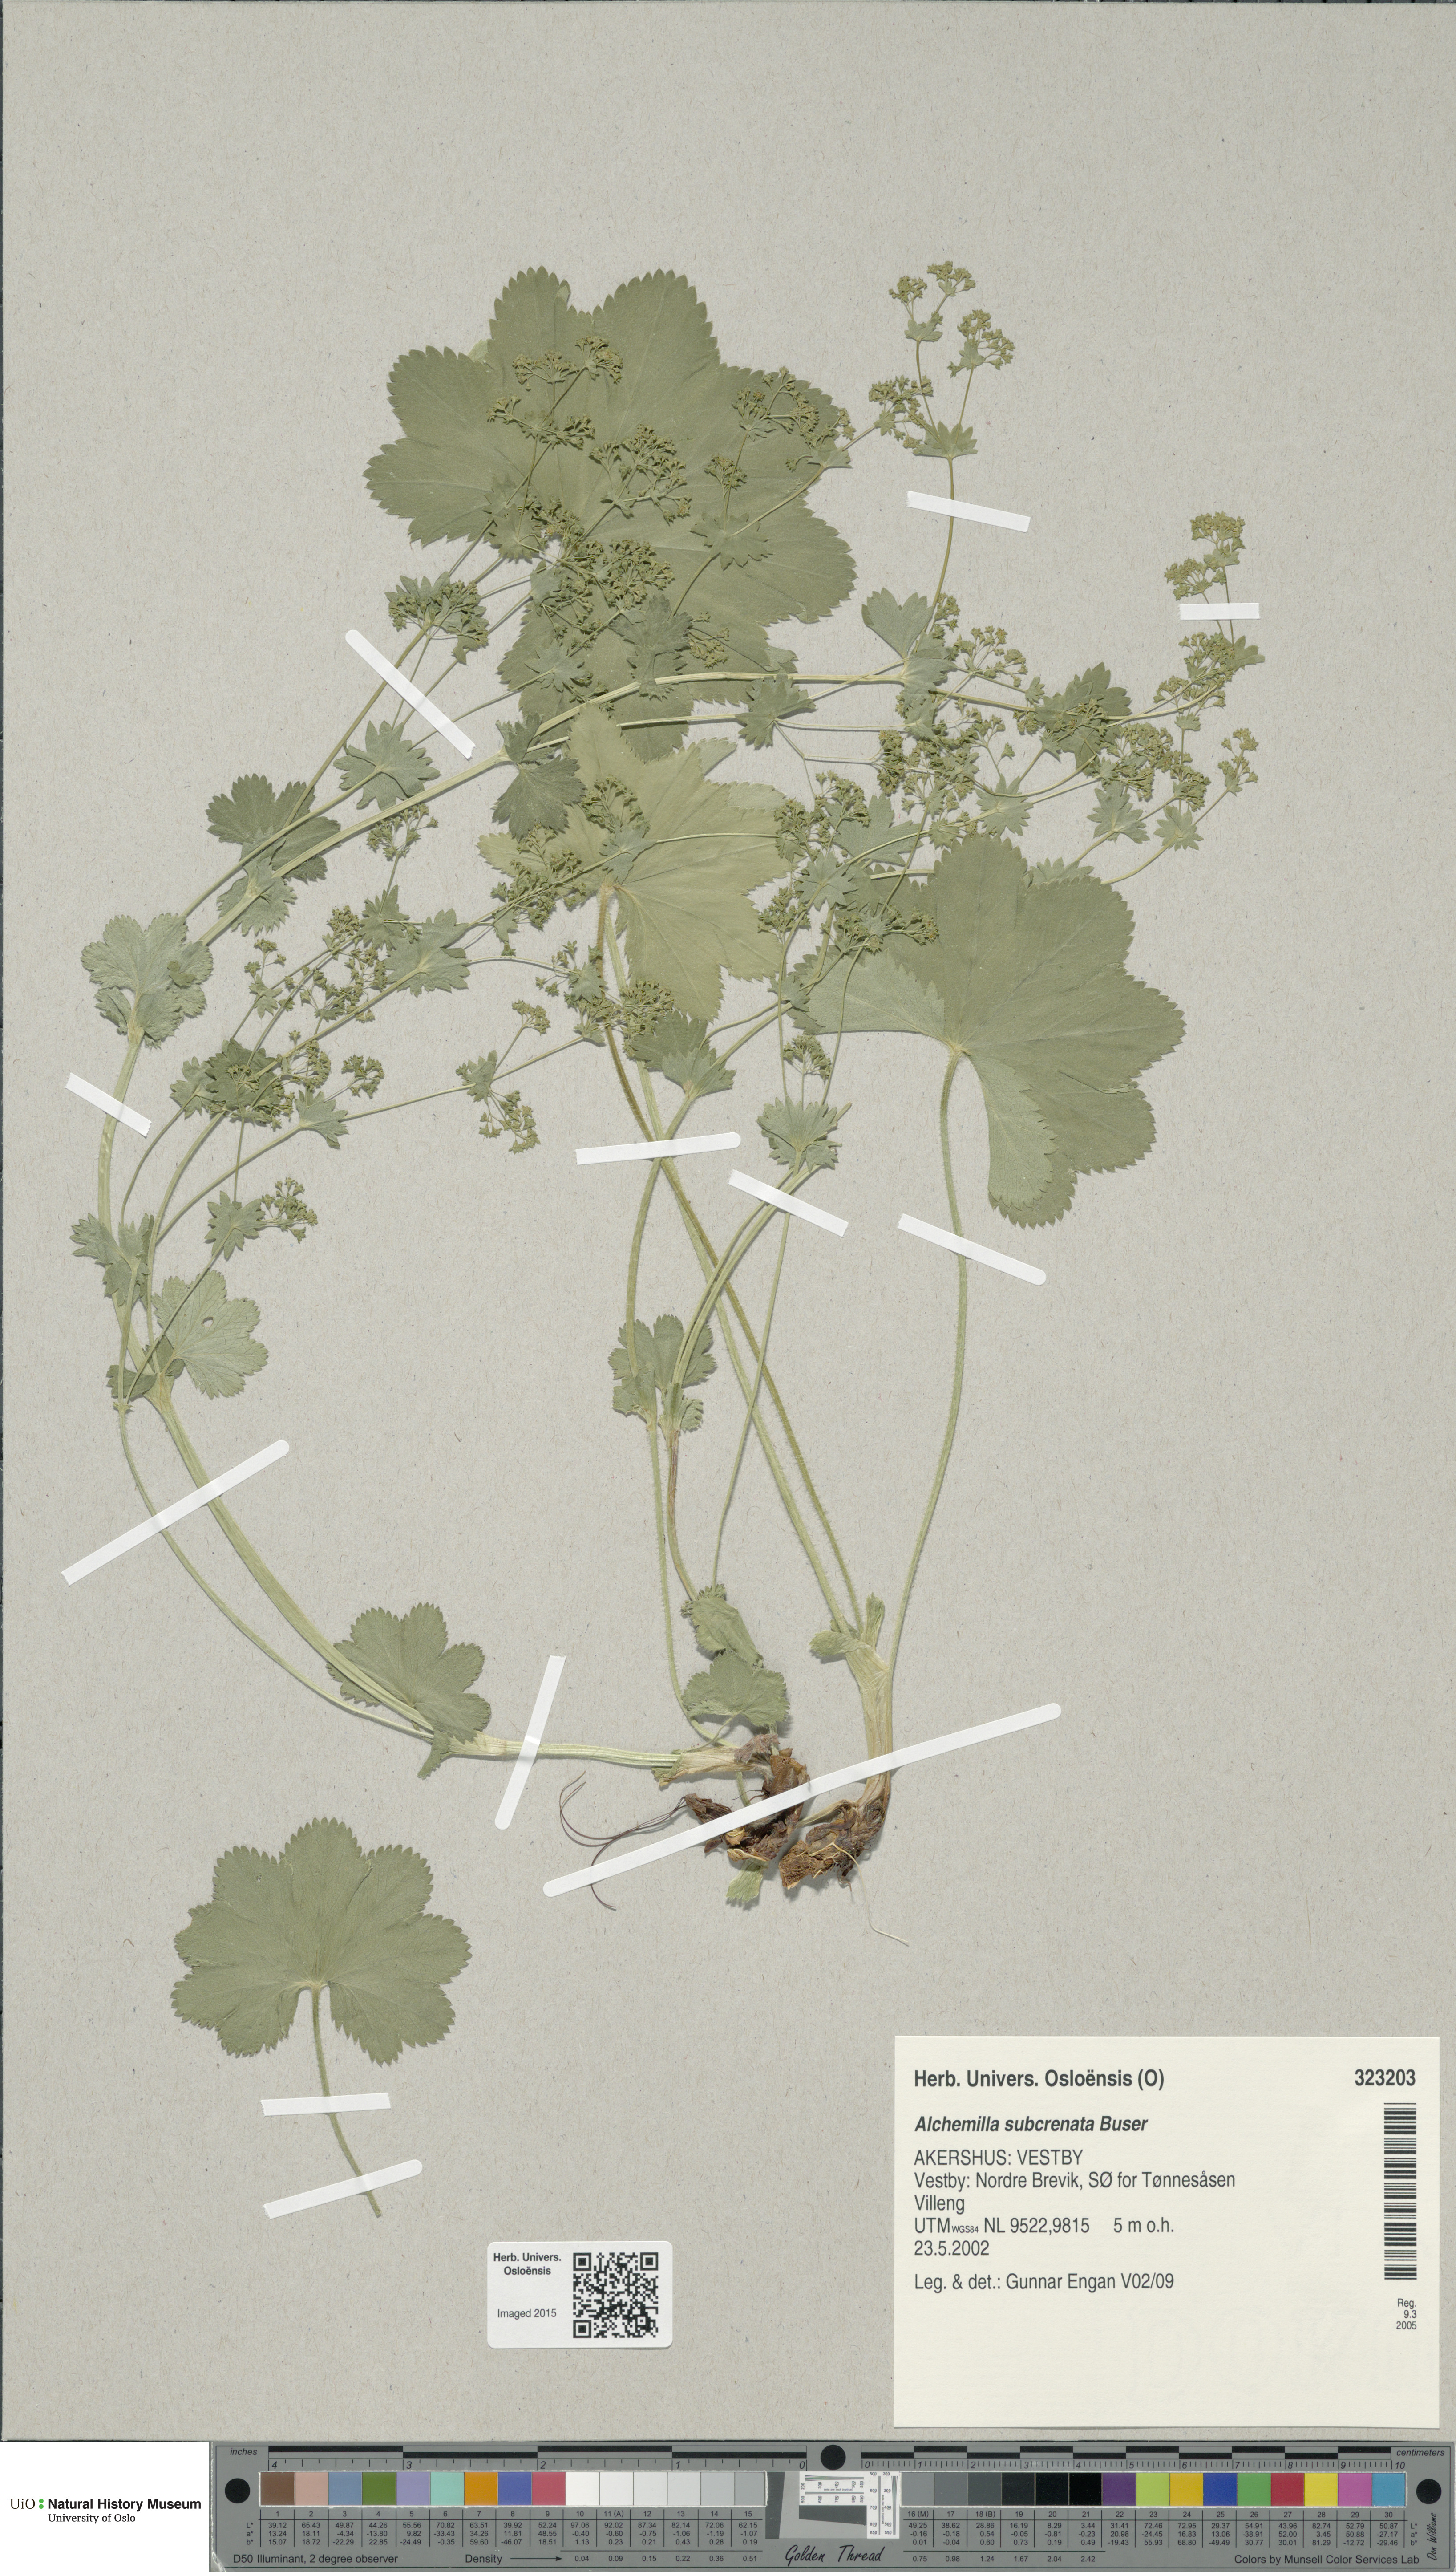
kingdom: Plantae
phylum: Tracheophyta
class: Magnoliopsida
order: Rosales
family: Rosaceae
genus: Alchemilla
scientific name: Alchemilla subcrenata
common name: Broadtooth lady's mantle
